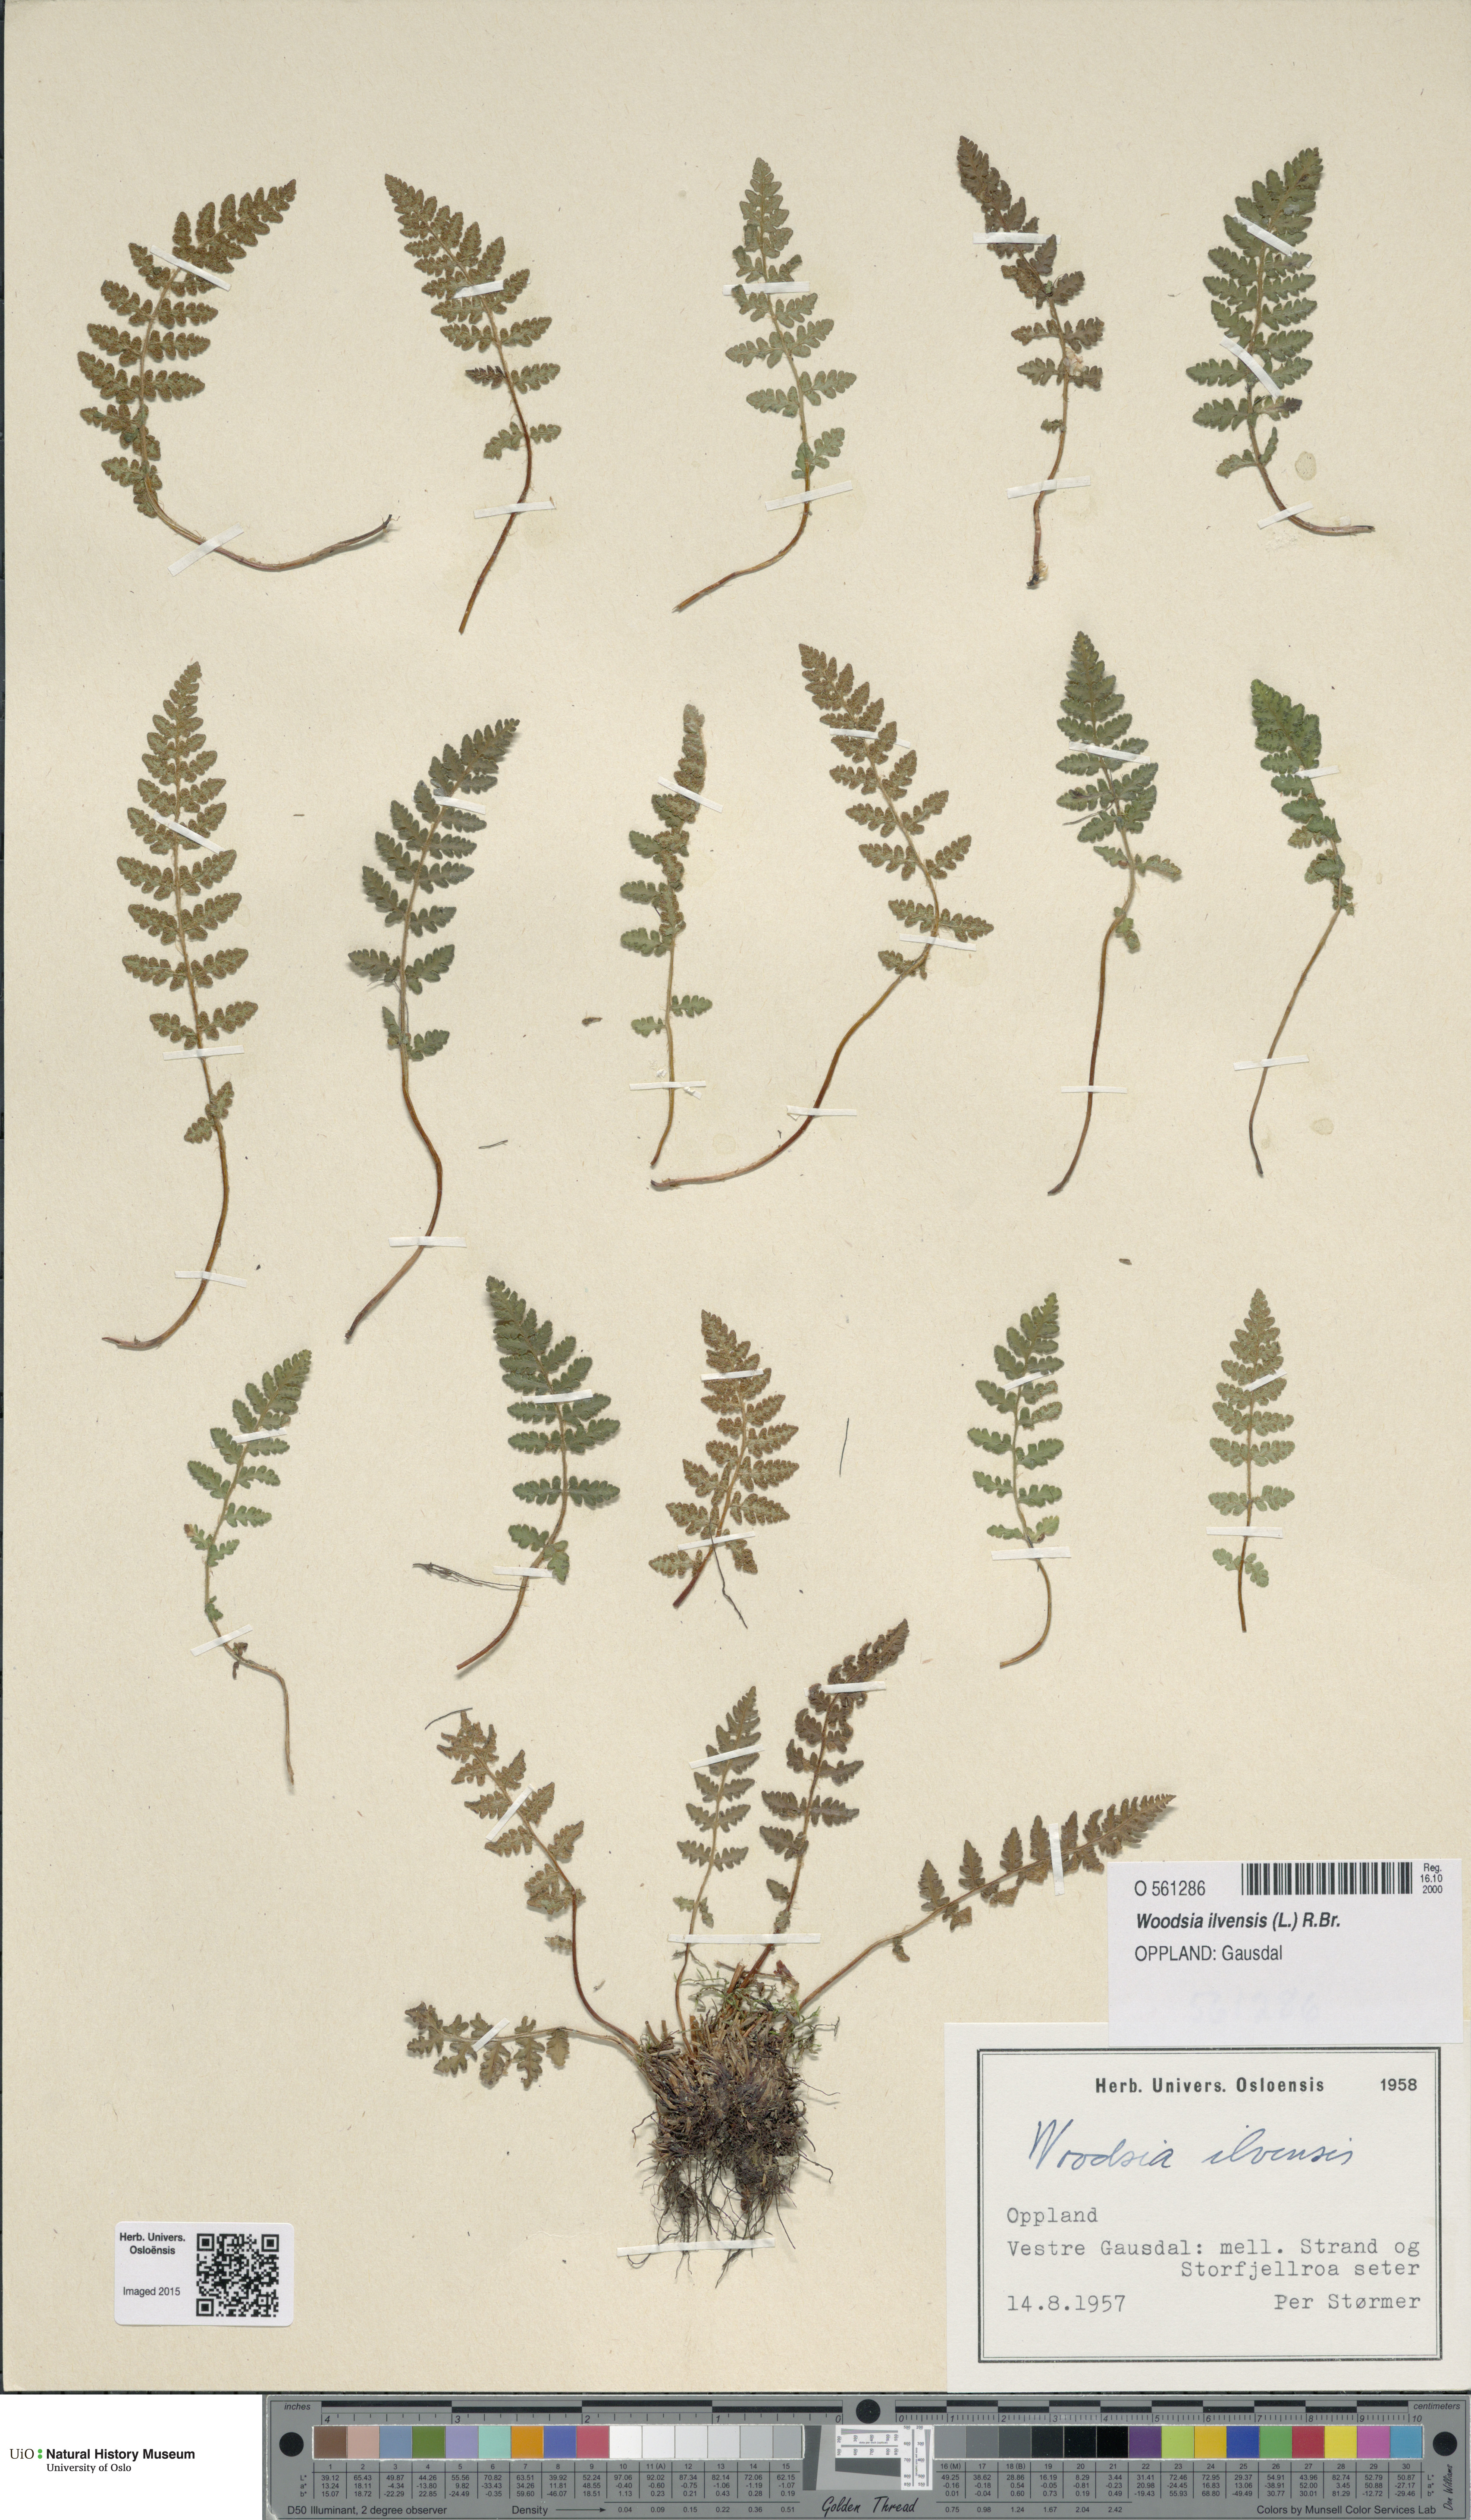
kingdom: Plantae
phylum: Tracheophyta
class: Polypodiopsida
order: Polypodiales
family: Woodsiaceae
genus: Woodsia
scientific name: Woodsia ilvensis
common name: Fragrant woodsia
